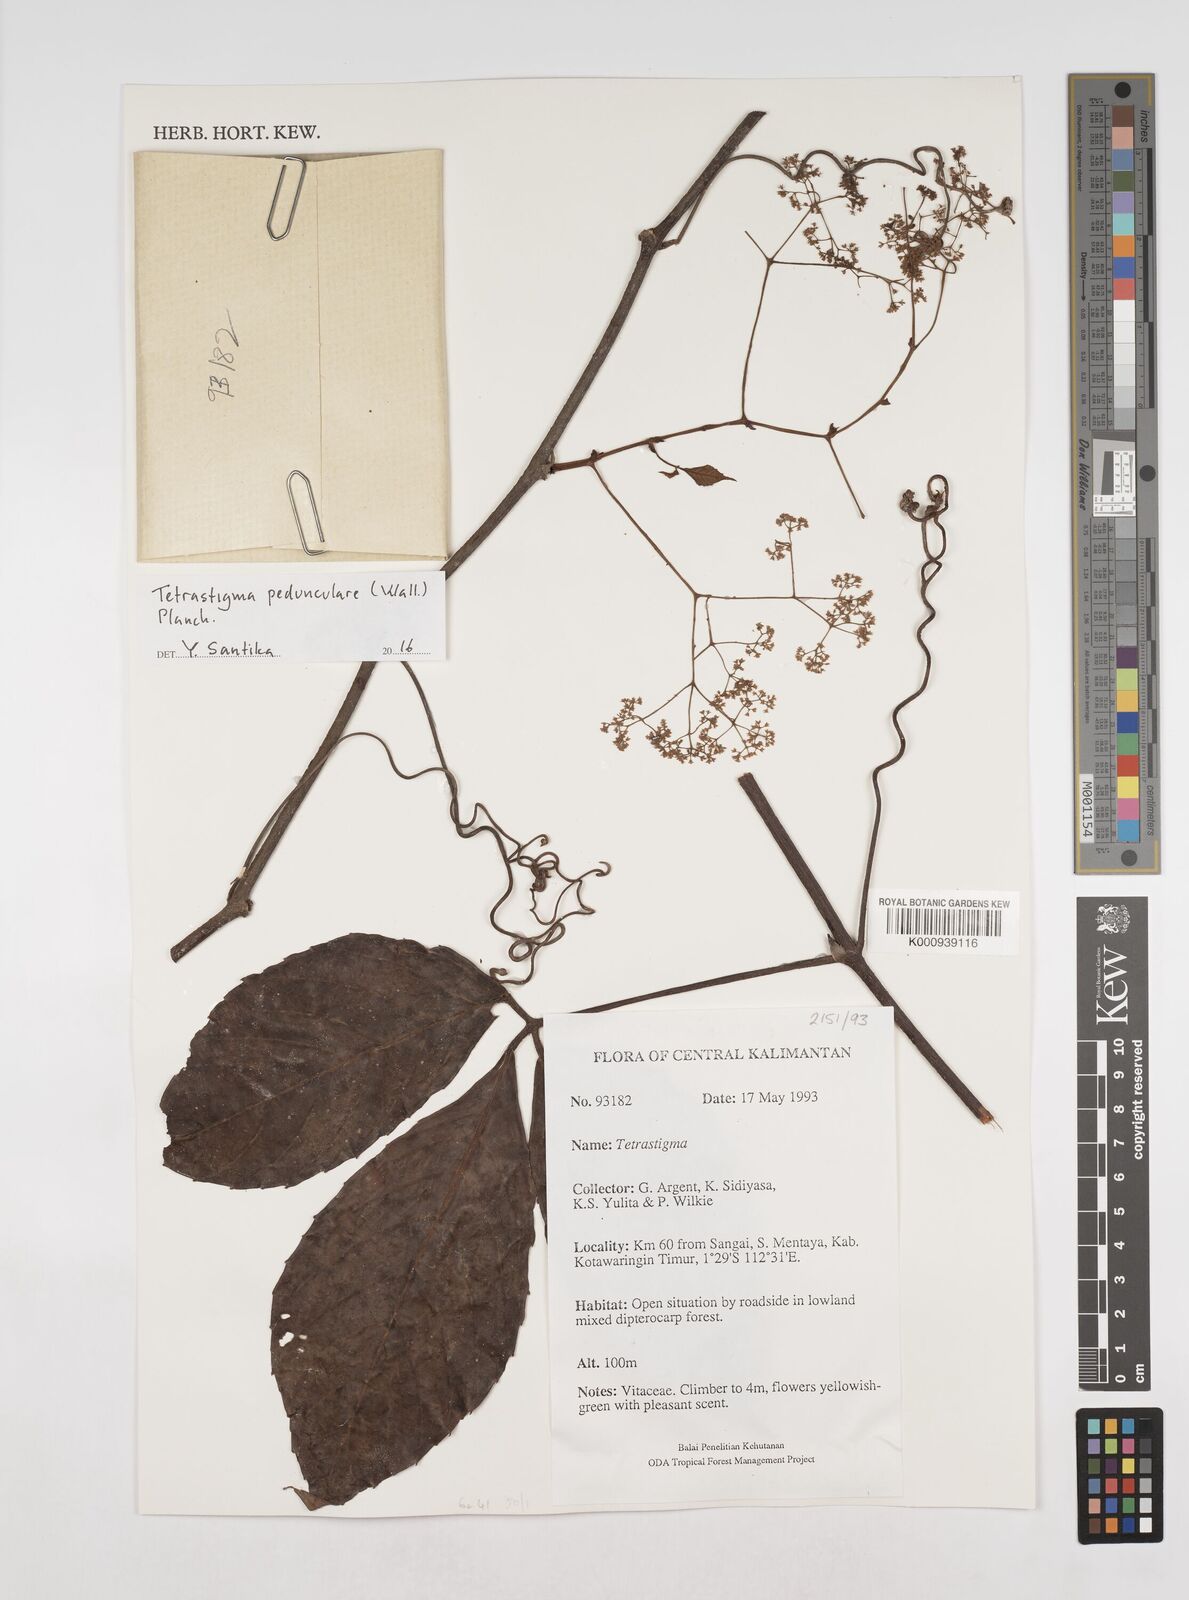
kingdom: Plantae
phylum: Tracheophyta
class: Magnoliopsida
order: Vitales
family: Vitaceae
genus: Tetrastigma
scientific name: Tetrastigma pedunculare
